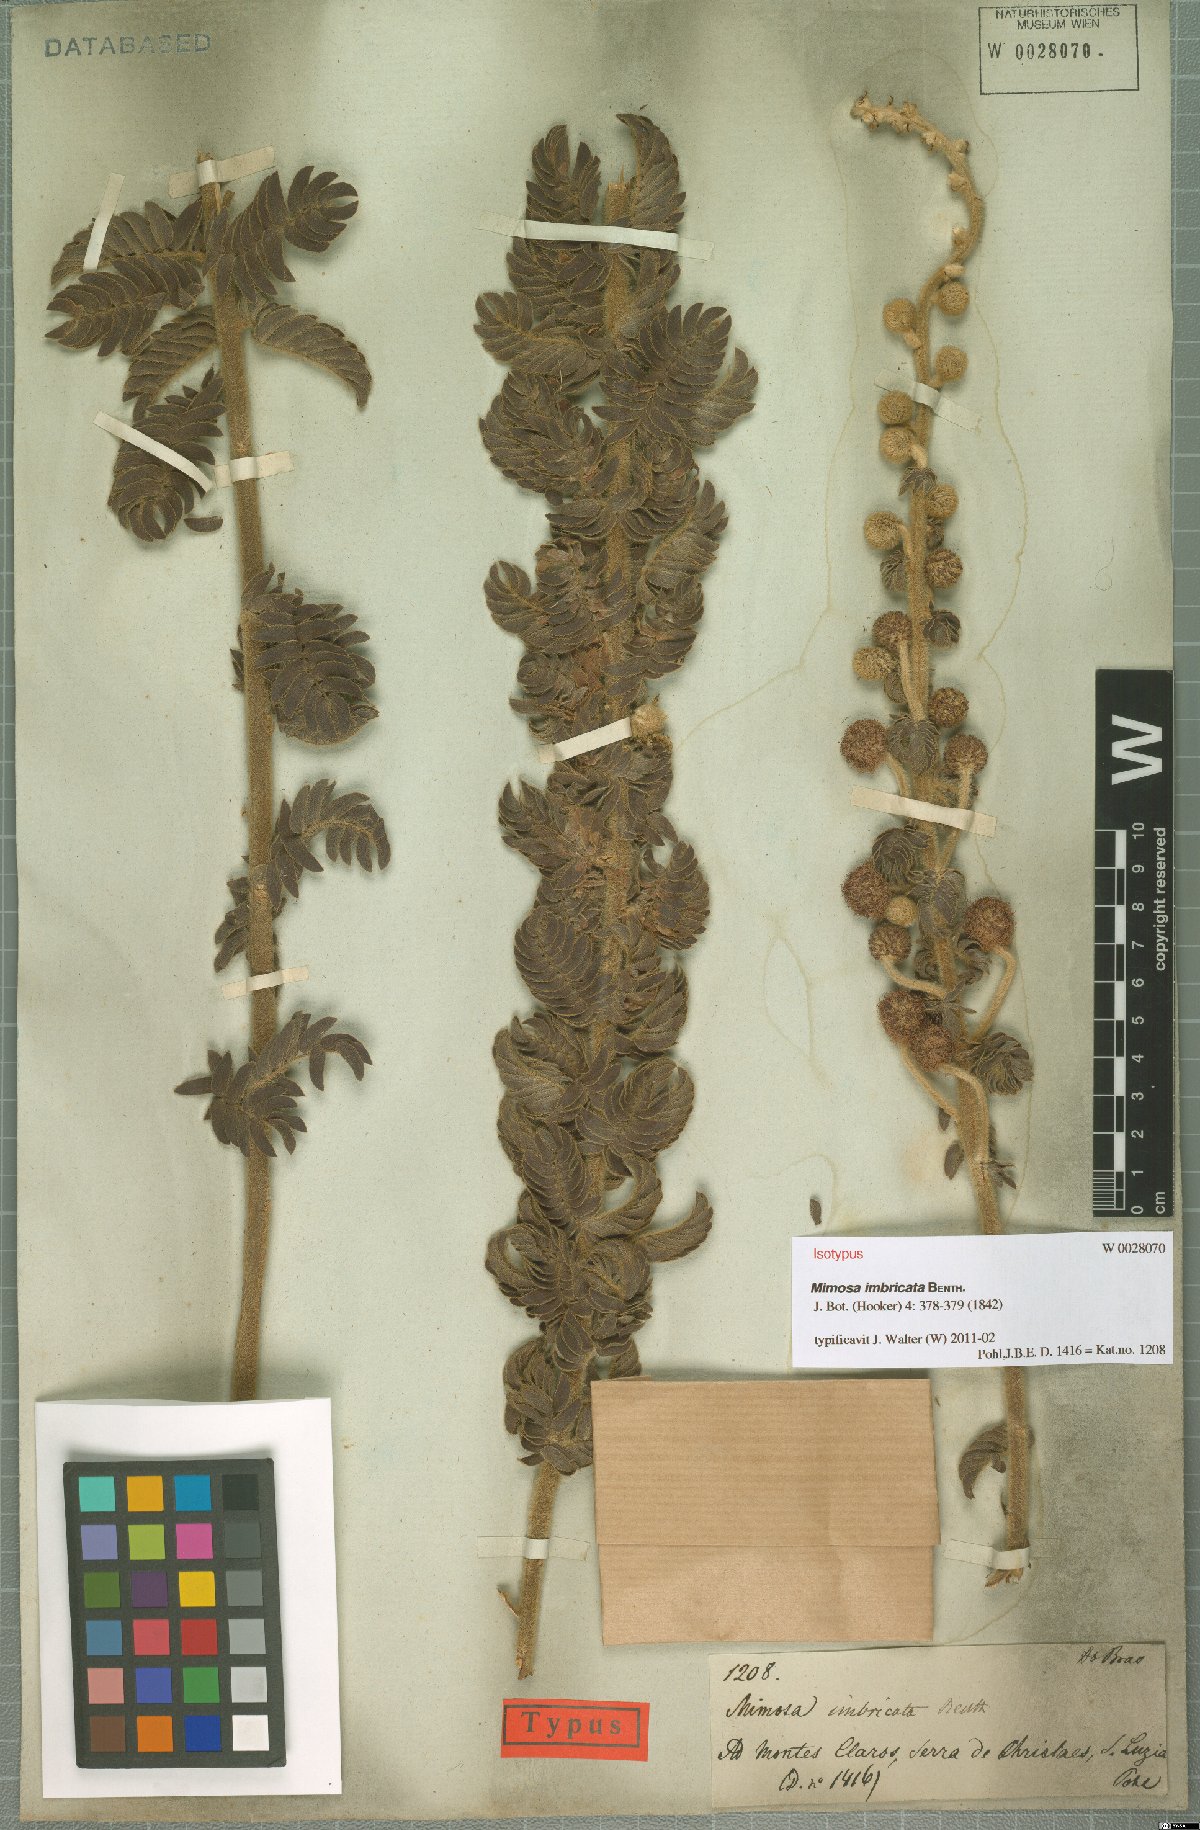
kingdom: Plantae
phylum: Tracheophyta
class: Magnoliopsida
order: Fabales
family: Fabaceae
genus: Mimosa
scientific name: Mimosa radula
